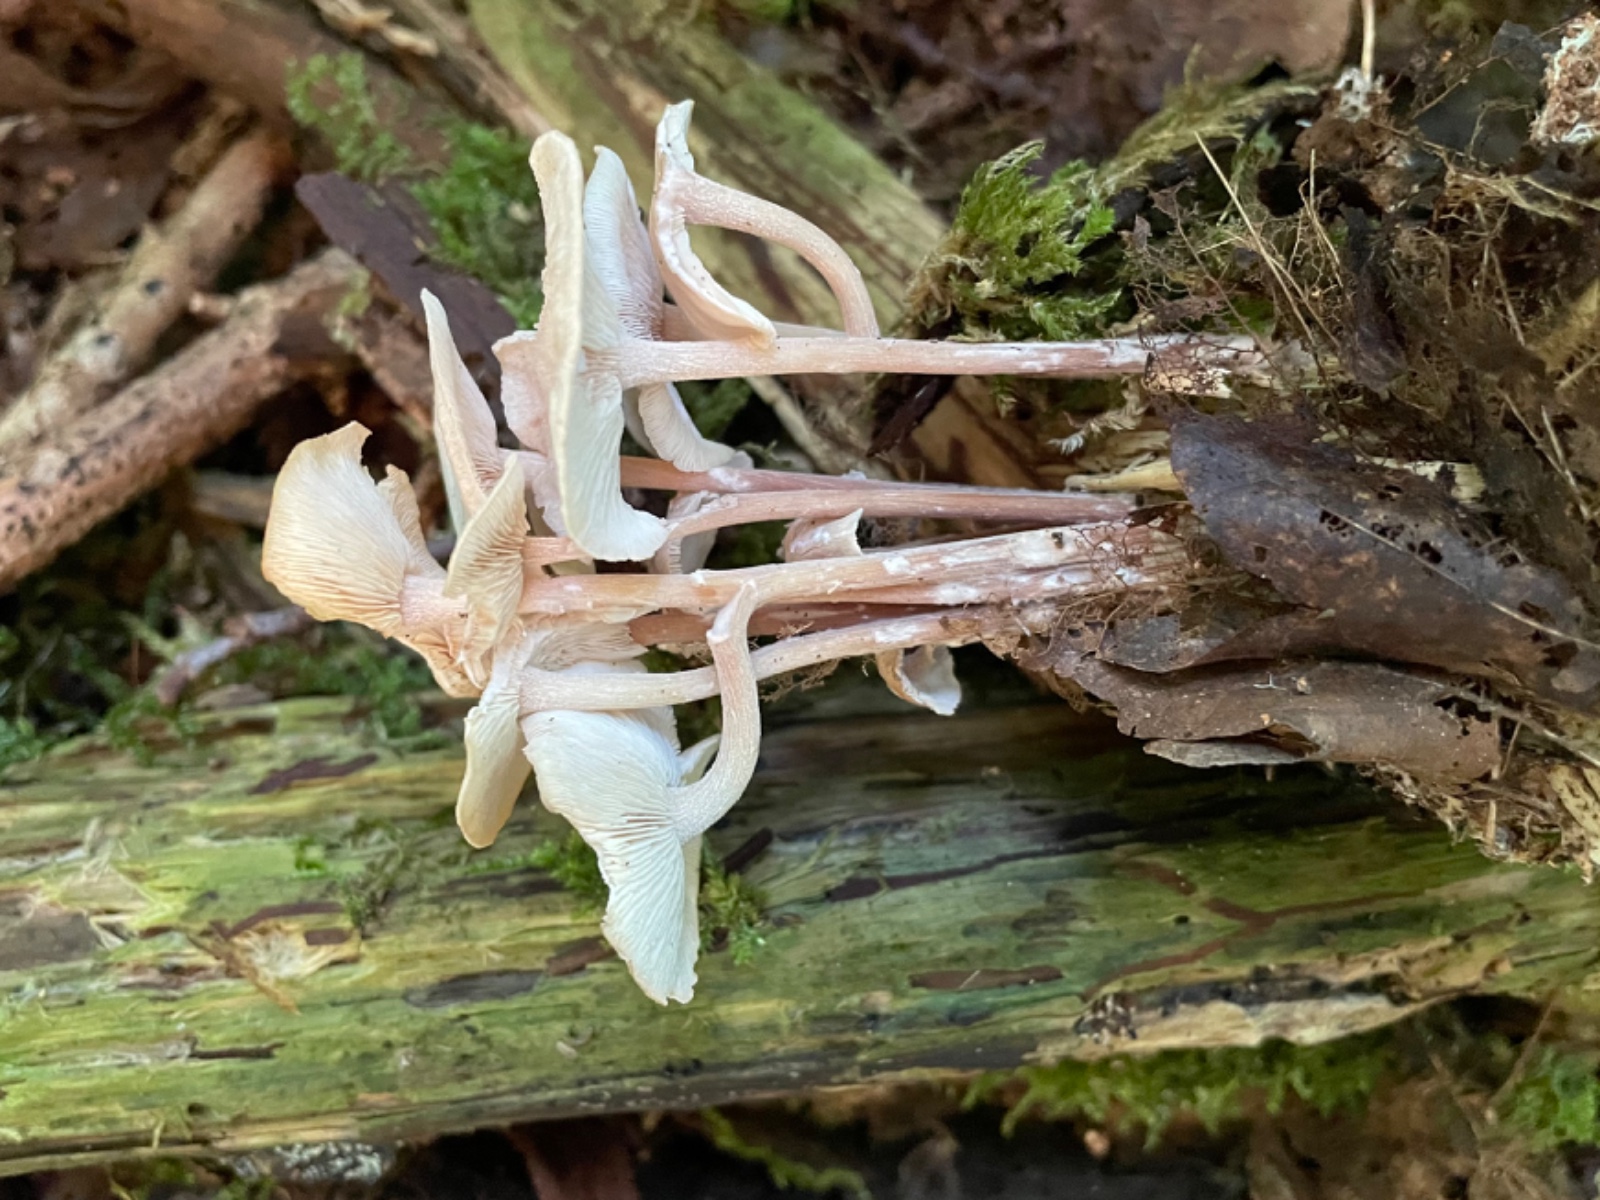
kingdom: Fungi
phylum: Basidiomycota
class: Agaricomycetes
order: Agaricales
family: Omphalotaceae
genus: Collybiopsis
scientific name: Collybiopsis confluens
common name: knippe-fladhat
